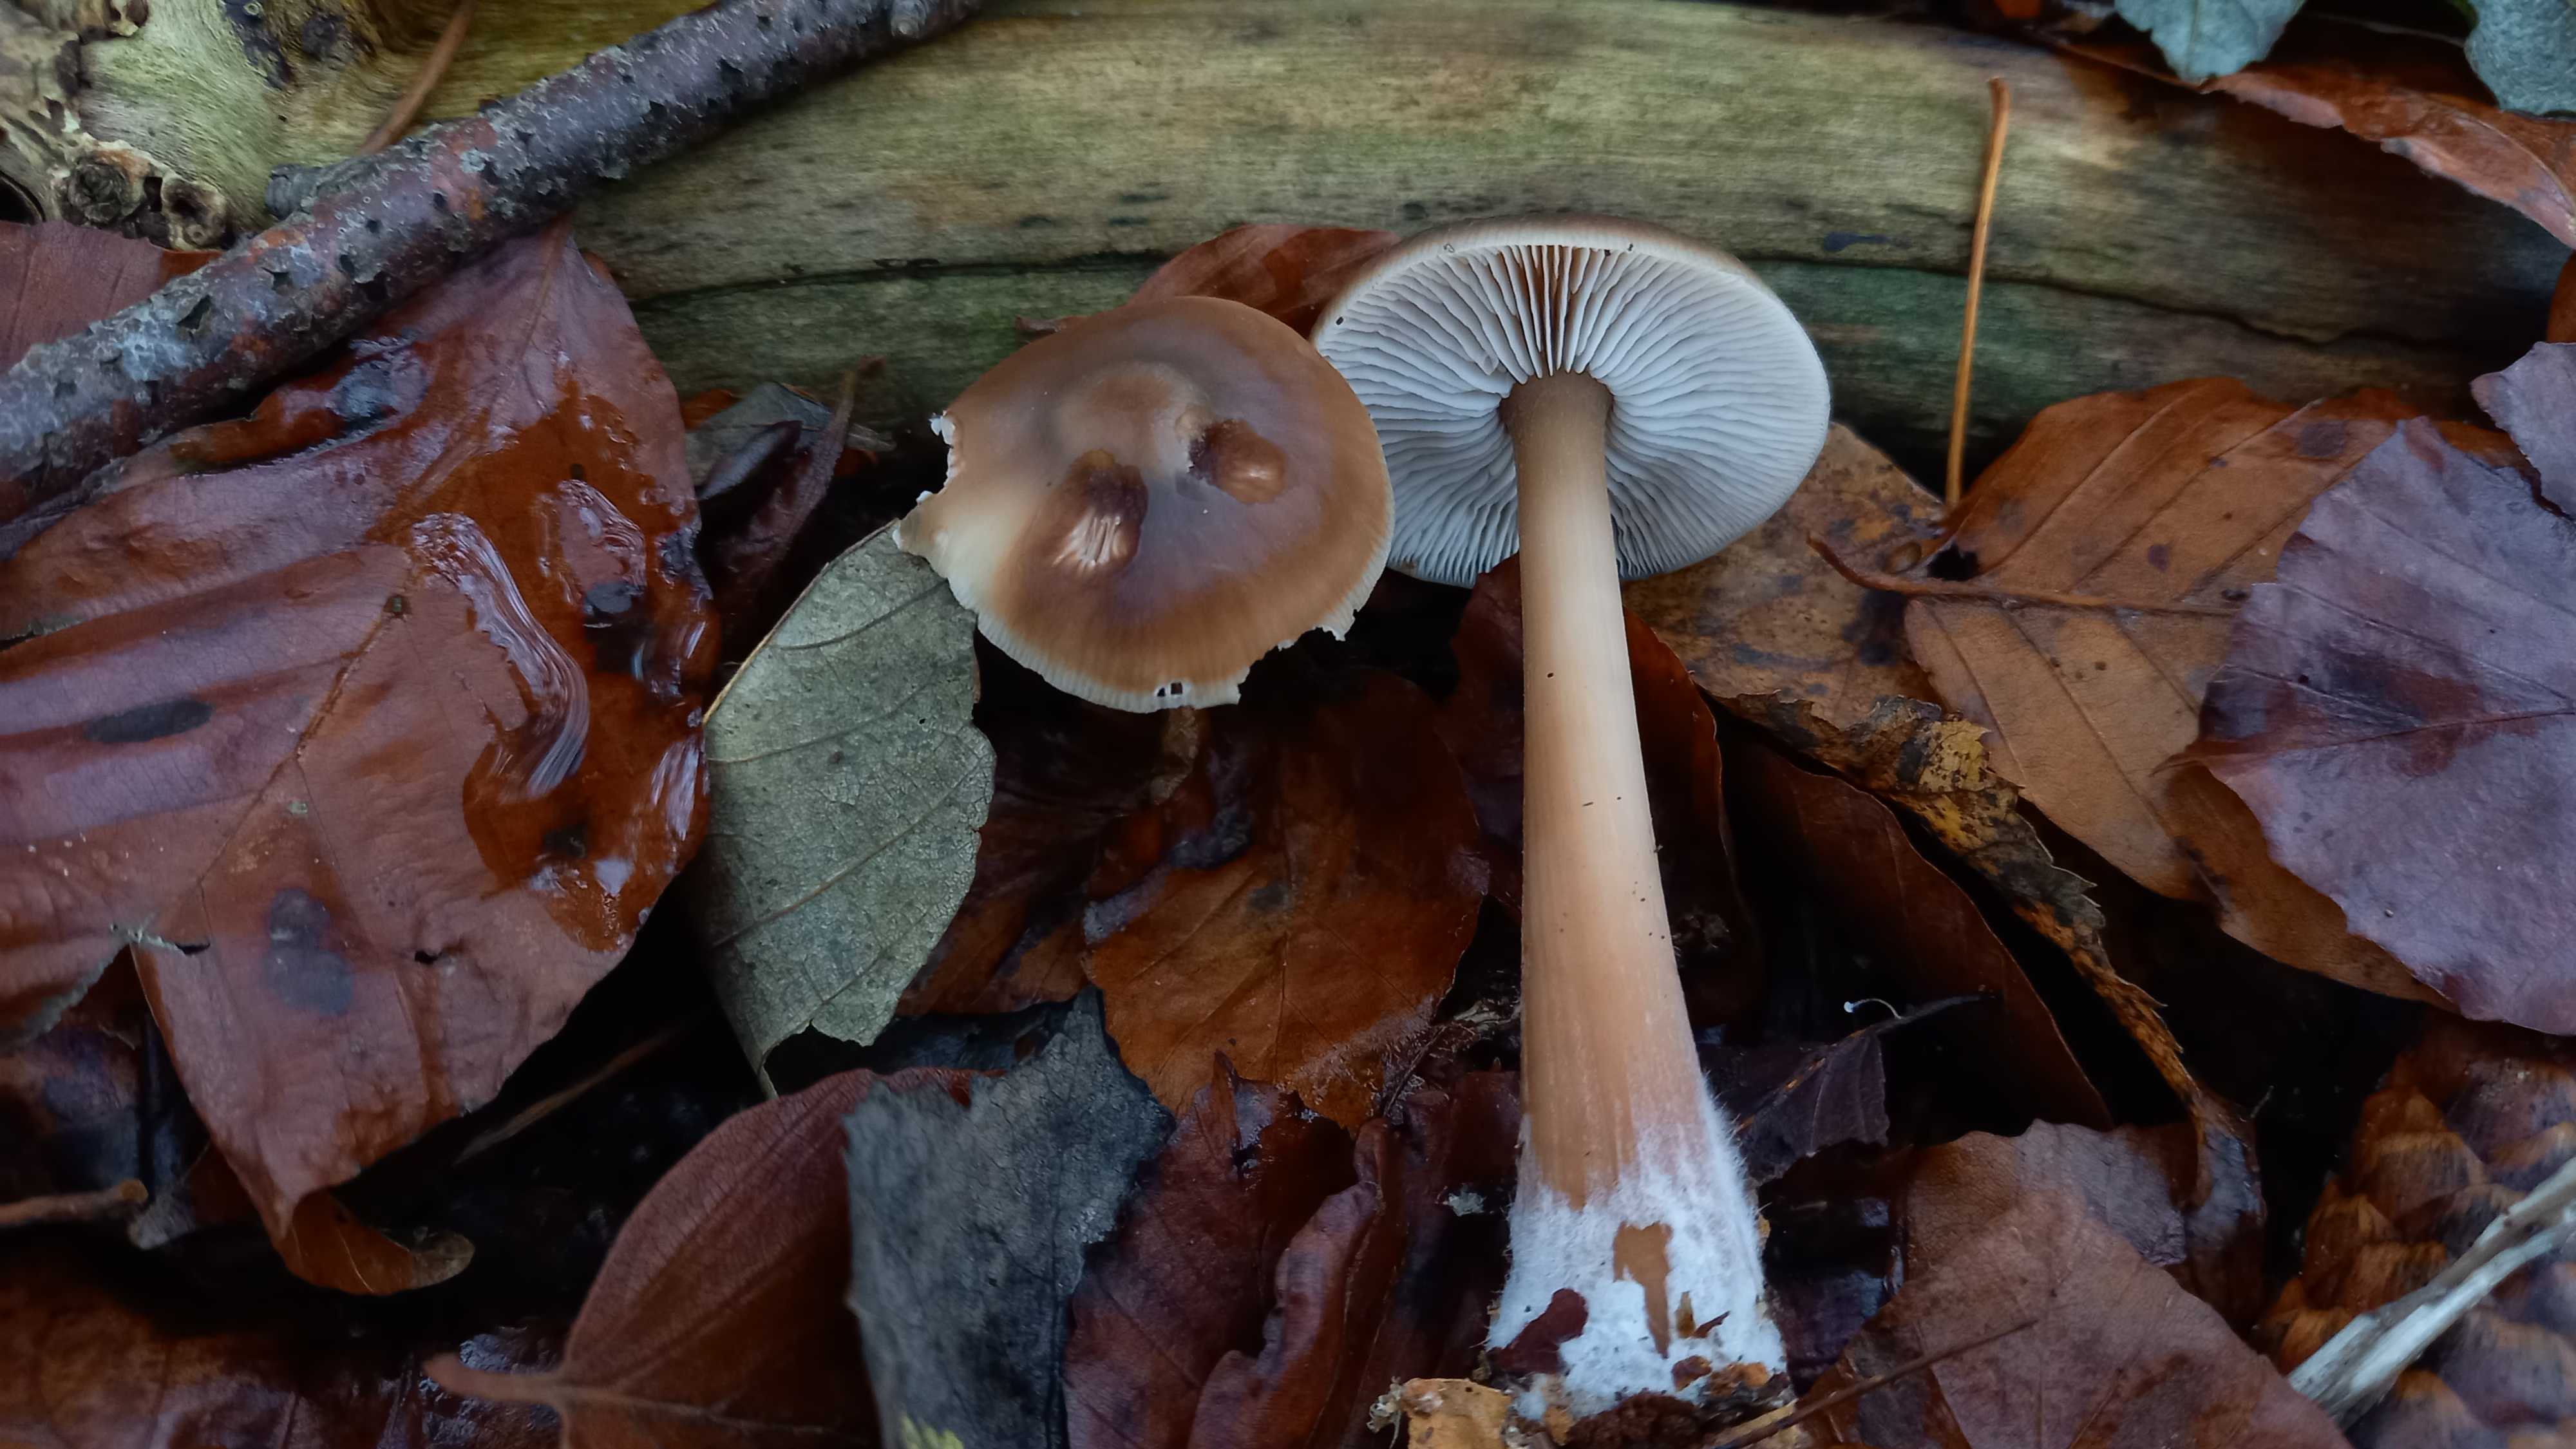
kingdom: Fungi
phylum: Basidiomycota
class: Agaricomycetes
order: Agaricales
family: Omphalotaceae
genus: Rhodocollybia
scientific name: Rhodocollybia butyracea
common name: keglestokket fladhat
